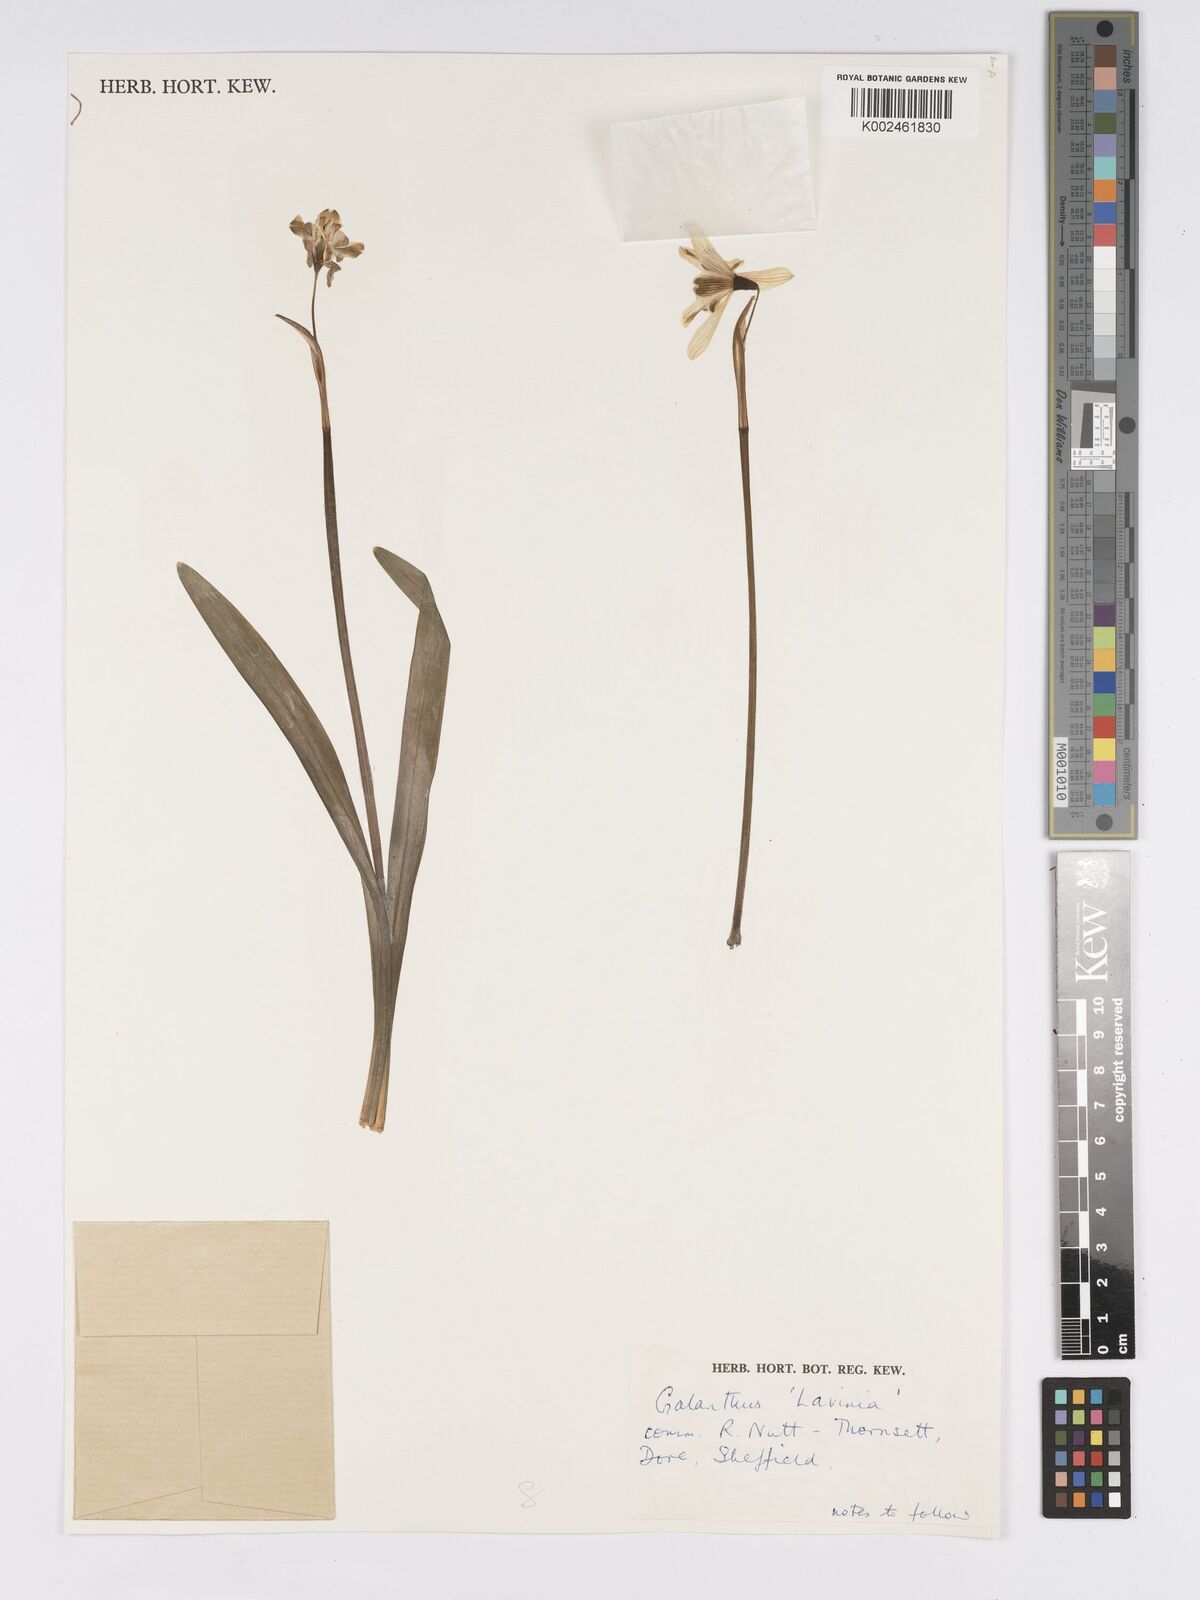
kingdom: Plantae
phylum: Tracheophyta
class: Liliopsida
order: Asparagales
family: Amaryllidaceae
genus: Galanthus
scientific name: Galanthus
